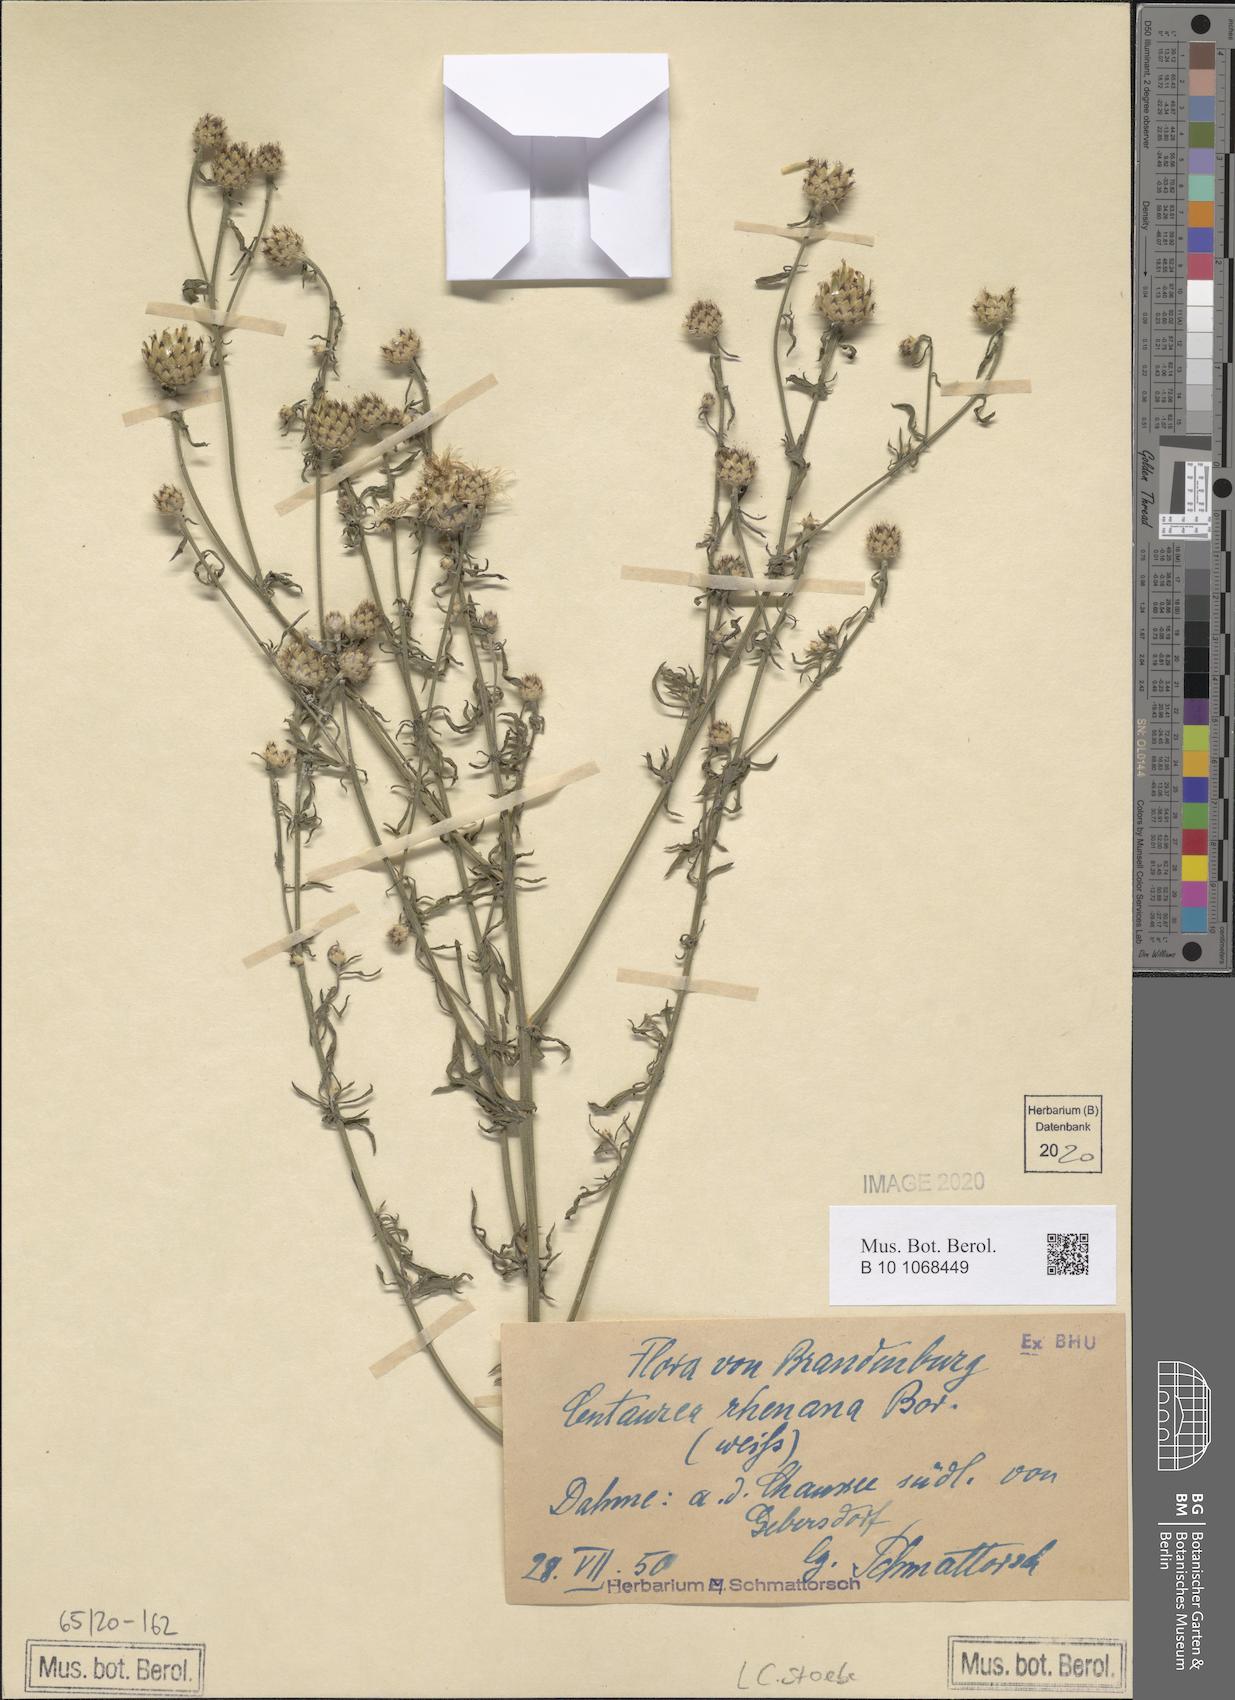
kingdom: Plantae
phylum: Tracheophyta
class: Magnoliopsida
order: Asterales
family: Asteraceae
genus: Centaurea
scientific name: Centaurea stoebe
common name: Spotted knapweed
